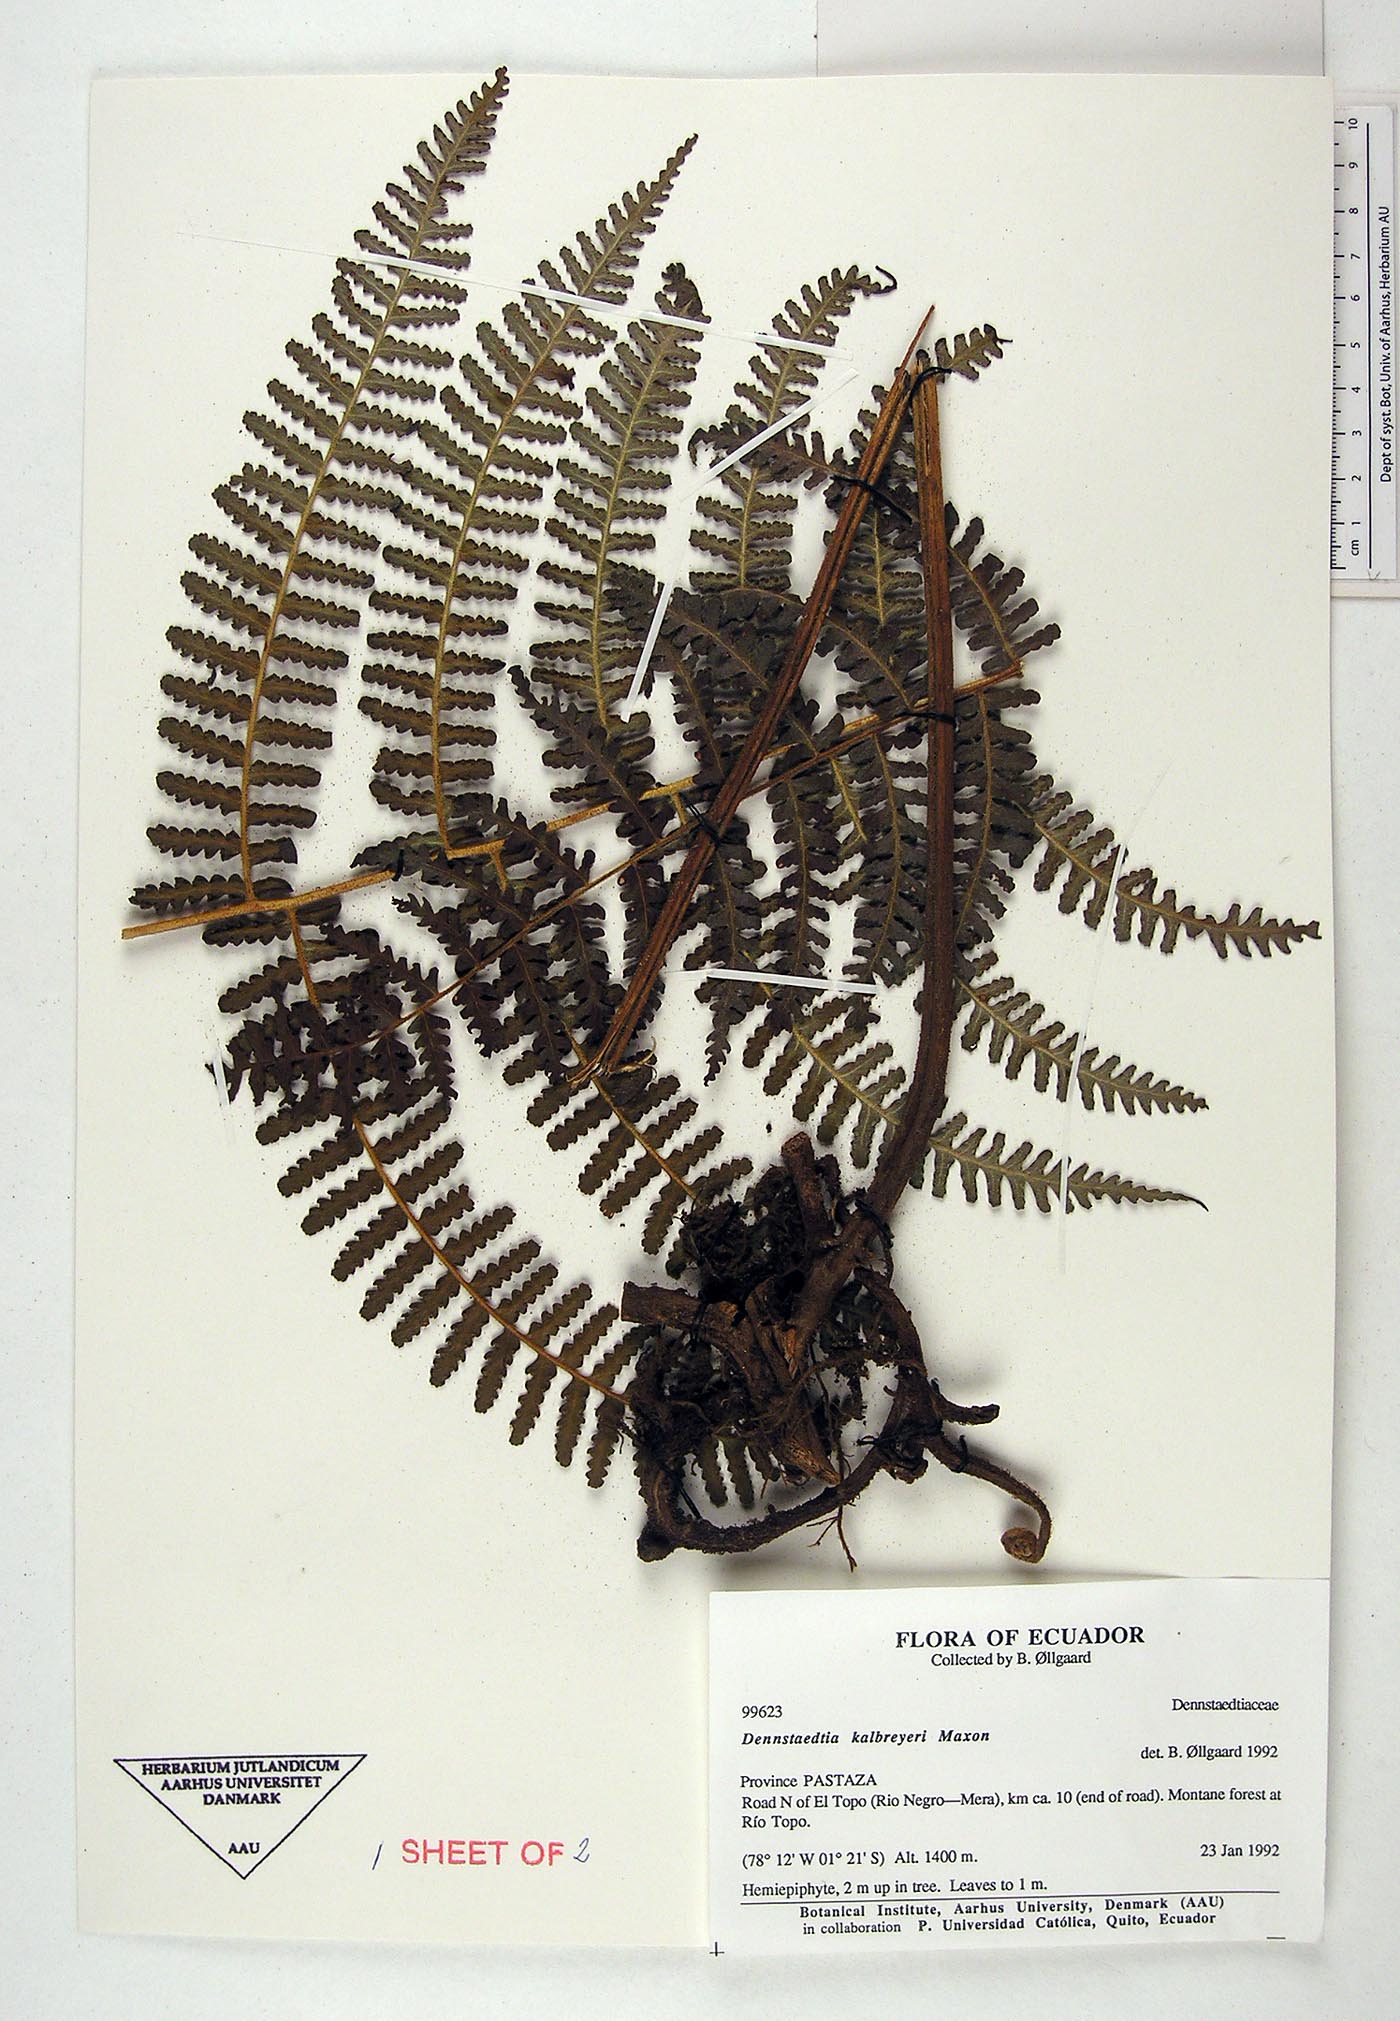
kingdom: Plantae
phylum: Tracheophyta
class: Polypodiopsida
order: Polypodiales
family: Dennstaedtiaceae
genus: Dennstaedtia
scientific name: Dennstaedtia obtusifolia
